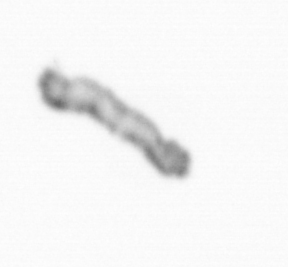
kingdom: Chromista
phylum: Ochrophyta
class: Bacillariophyceae
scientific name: Bacillariophyceae
